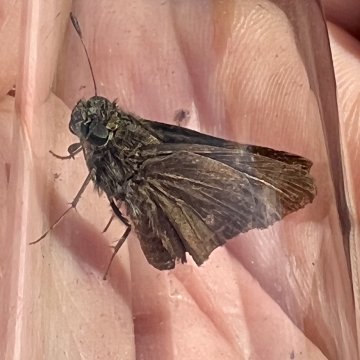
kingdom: Animalia
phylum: Arthropoda
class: Insecta
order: Lepidoptera
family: Hesperiidae
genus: Euphyes
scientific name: Euphyes vestris
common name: Dun Skipper
